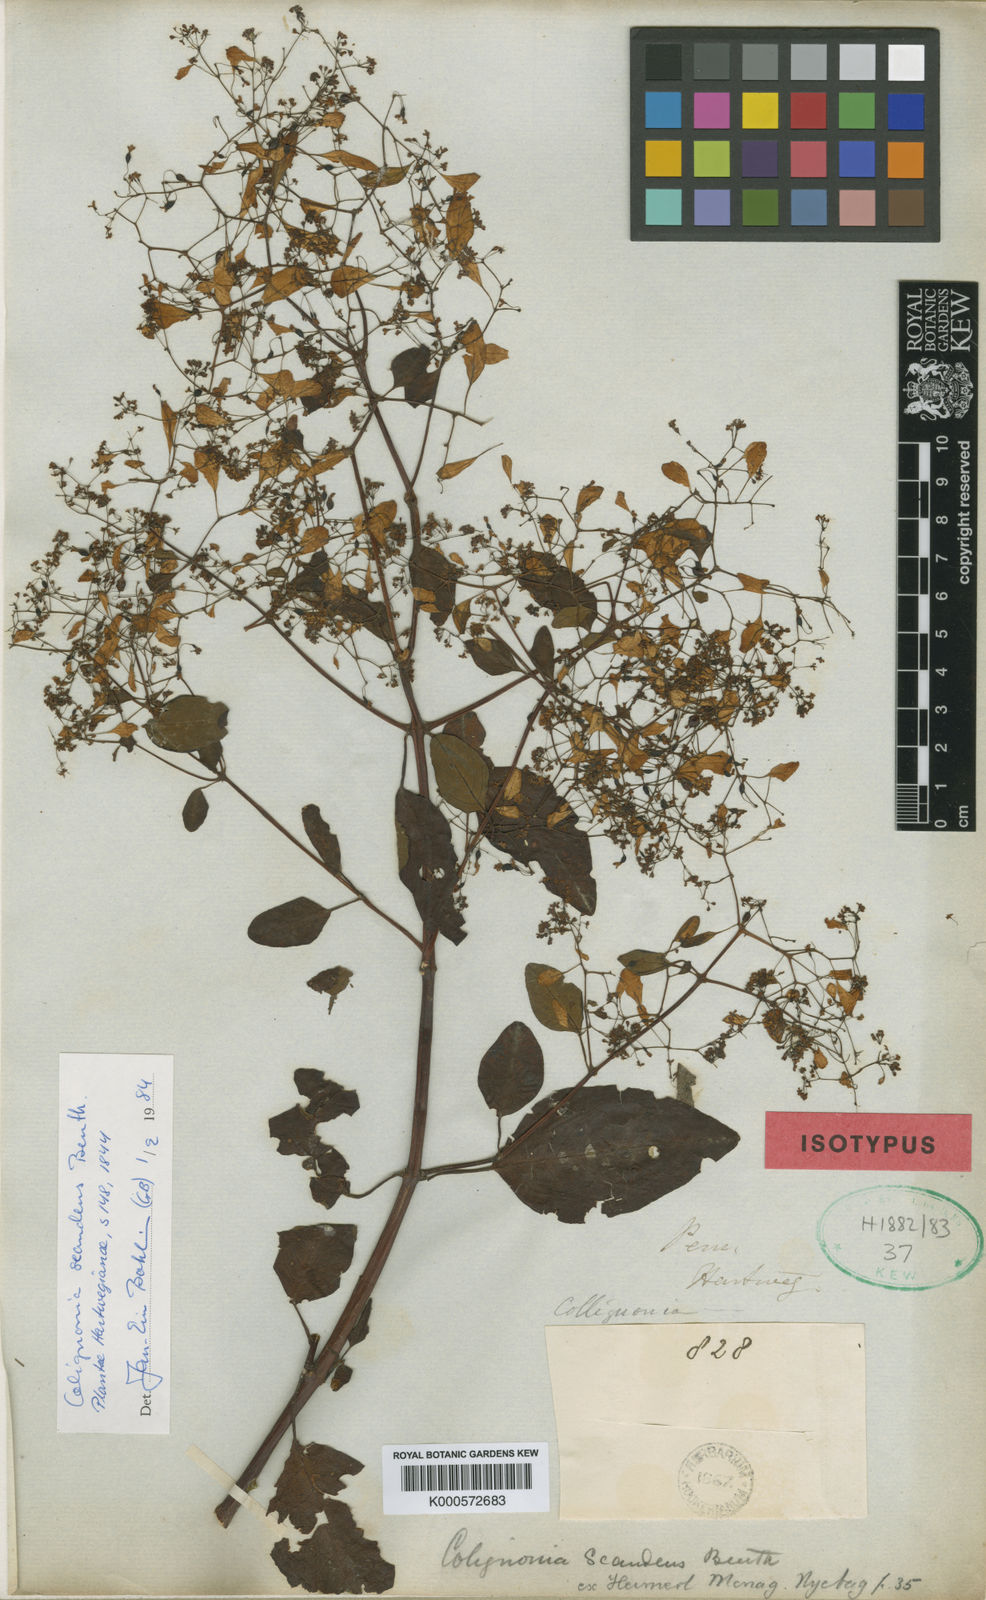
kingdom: Plantae
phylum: Tracheophyta
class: Magnoliopsida
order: Caryophyllales
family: Nyctaginaceae
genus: Colignonia
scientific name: Colignonia scandens
